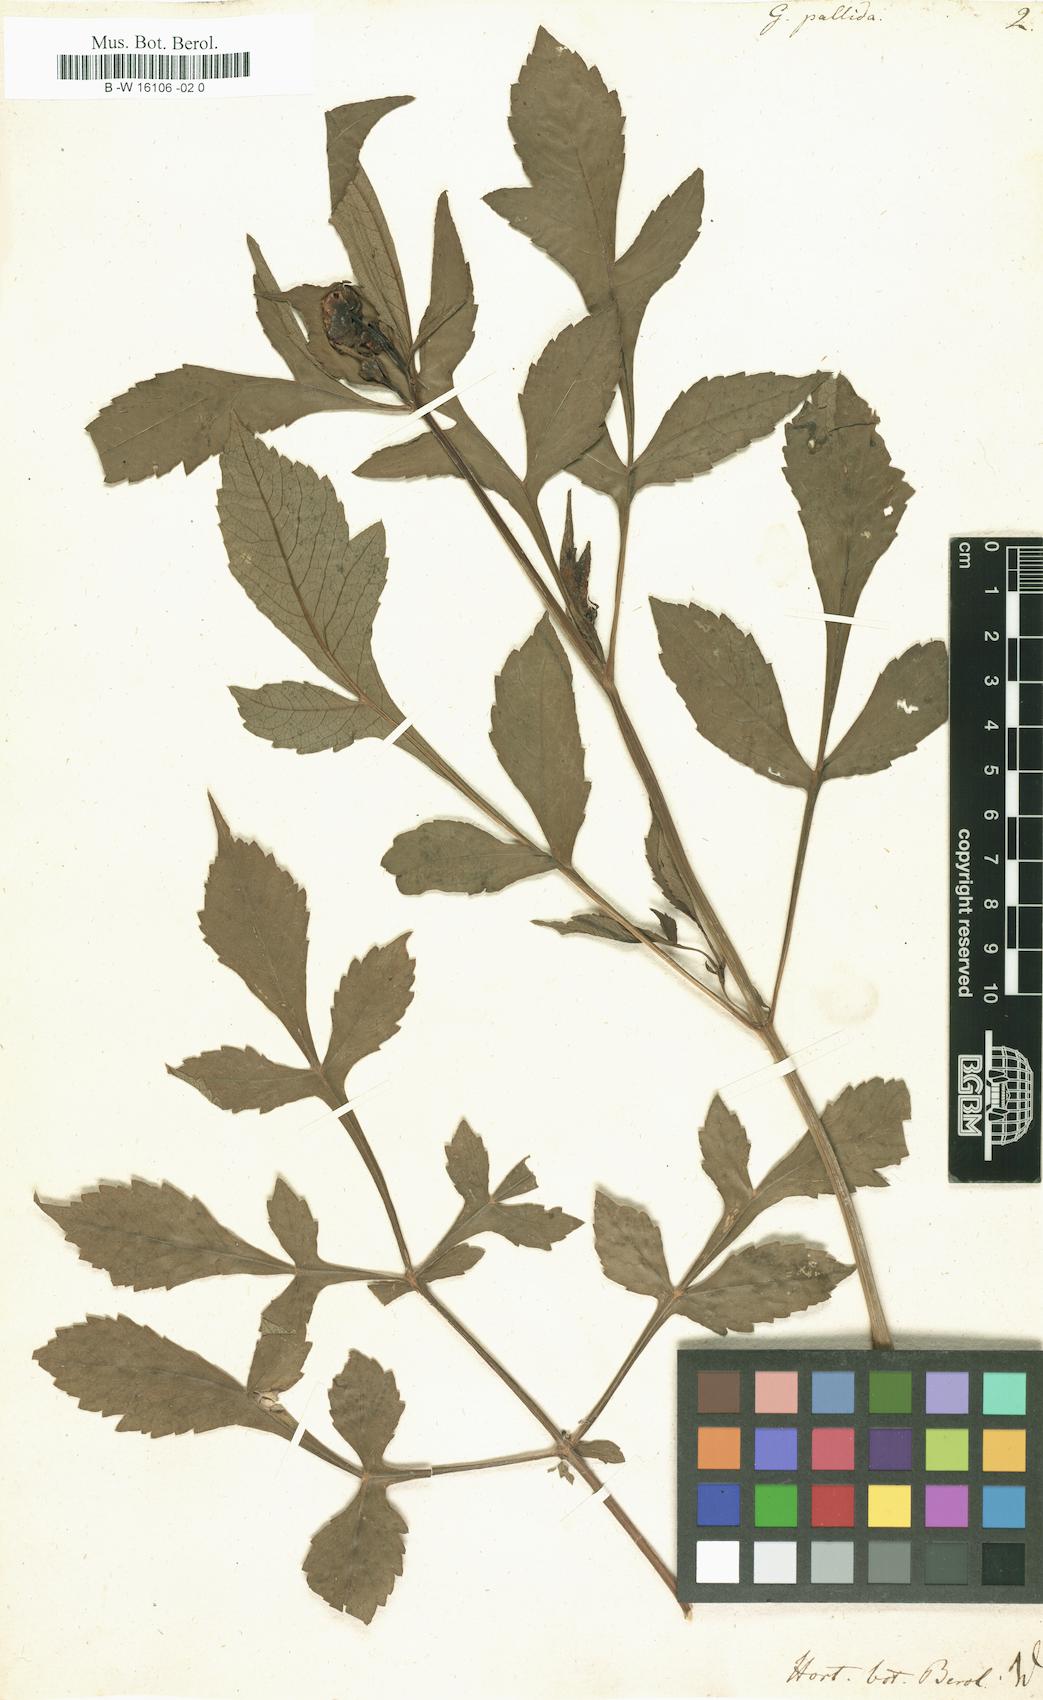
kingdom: Plantae
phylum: Tracheophyta
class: Magnoliopsida
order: Asterales
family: Asteraceae
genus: Dahlia
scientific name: Dahlia
